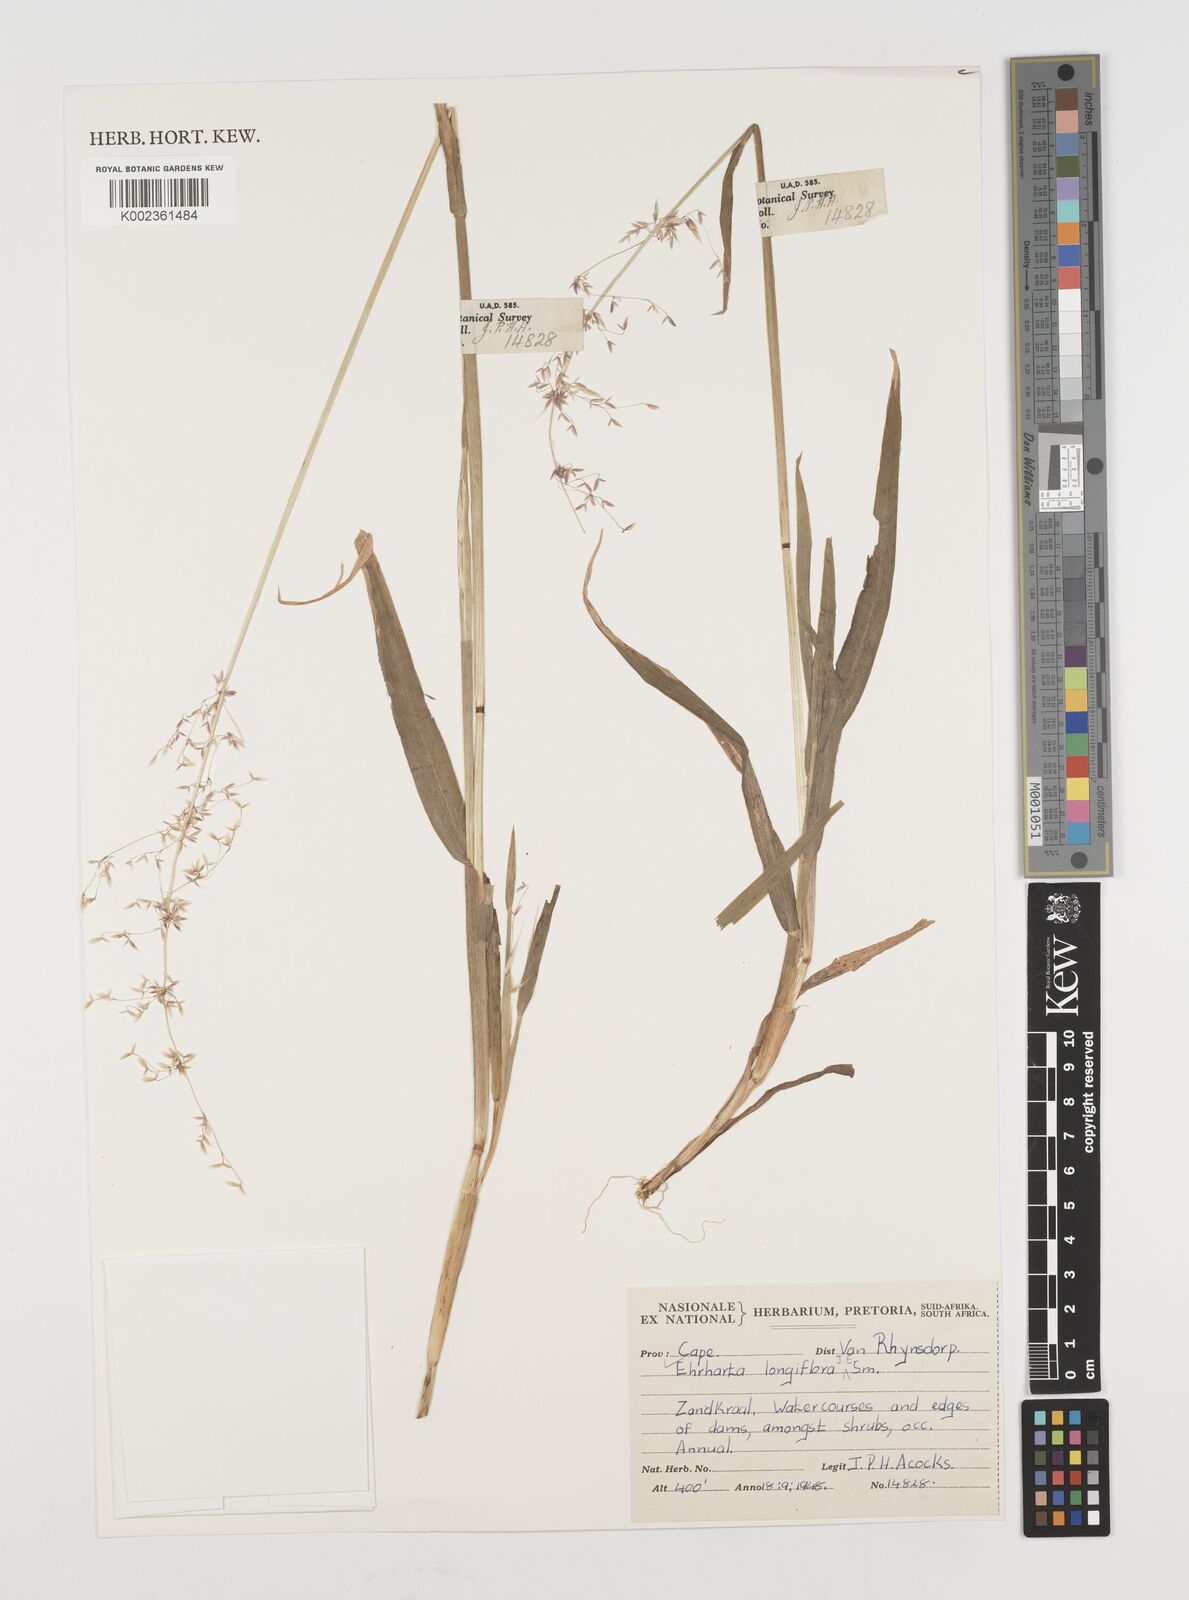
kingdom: Plantae
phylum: Tracheophyta
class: Liliopsida
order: Poales
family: Poaceae
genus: Ehrharta
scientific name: Ehrharta longiflora
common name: Longflowered veldtgrass
